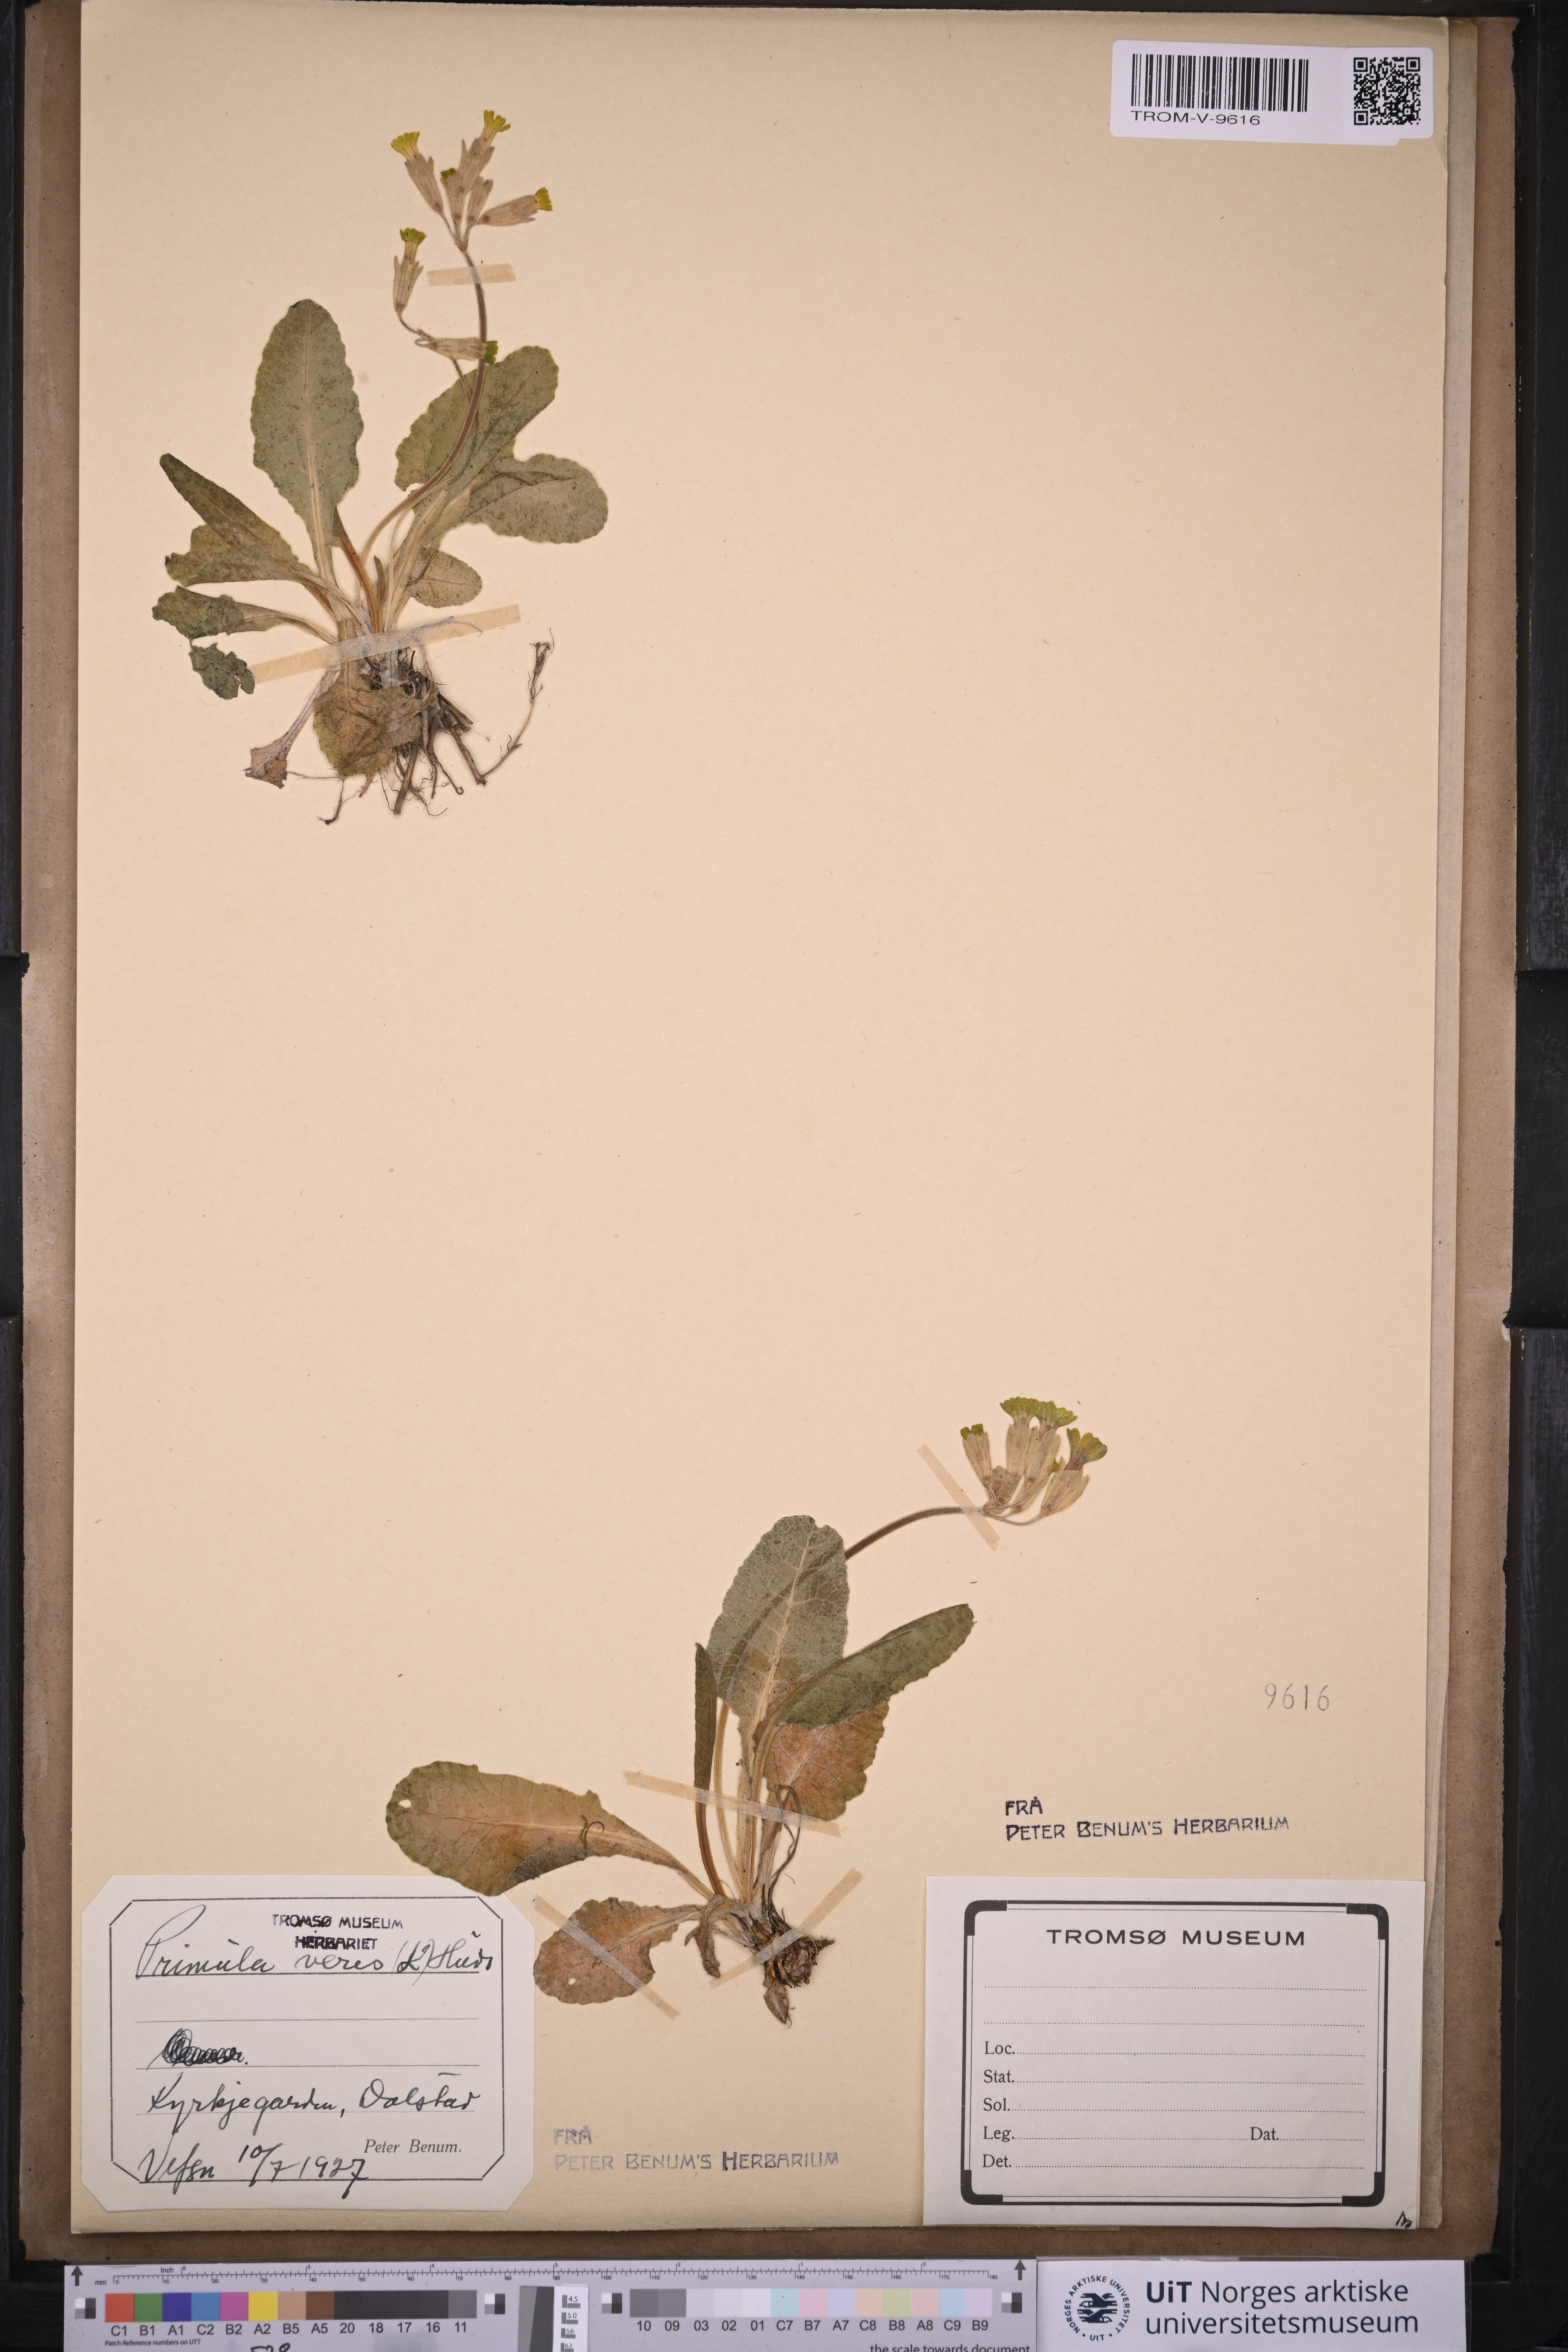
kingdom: Plantae
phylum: Tracheophyta
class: Magnoliopsida
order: Ericales
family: Primulaceae
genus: Primula
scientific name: Primula veris
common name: Cowslip
